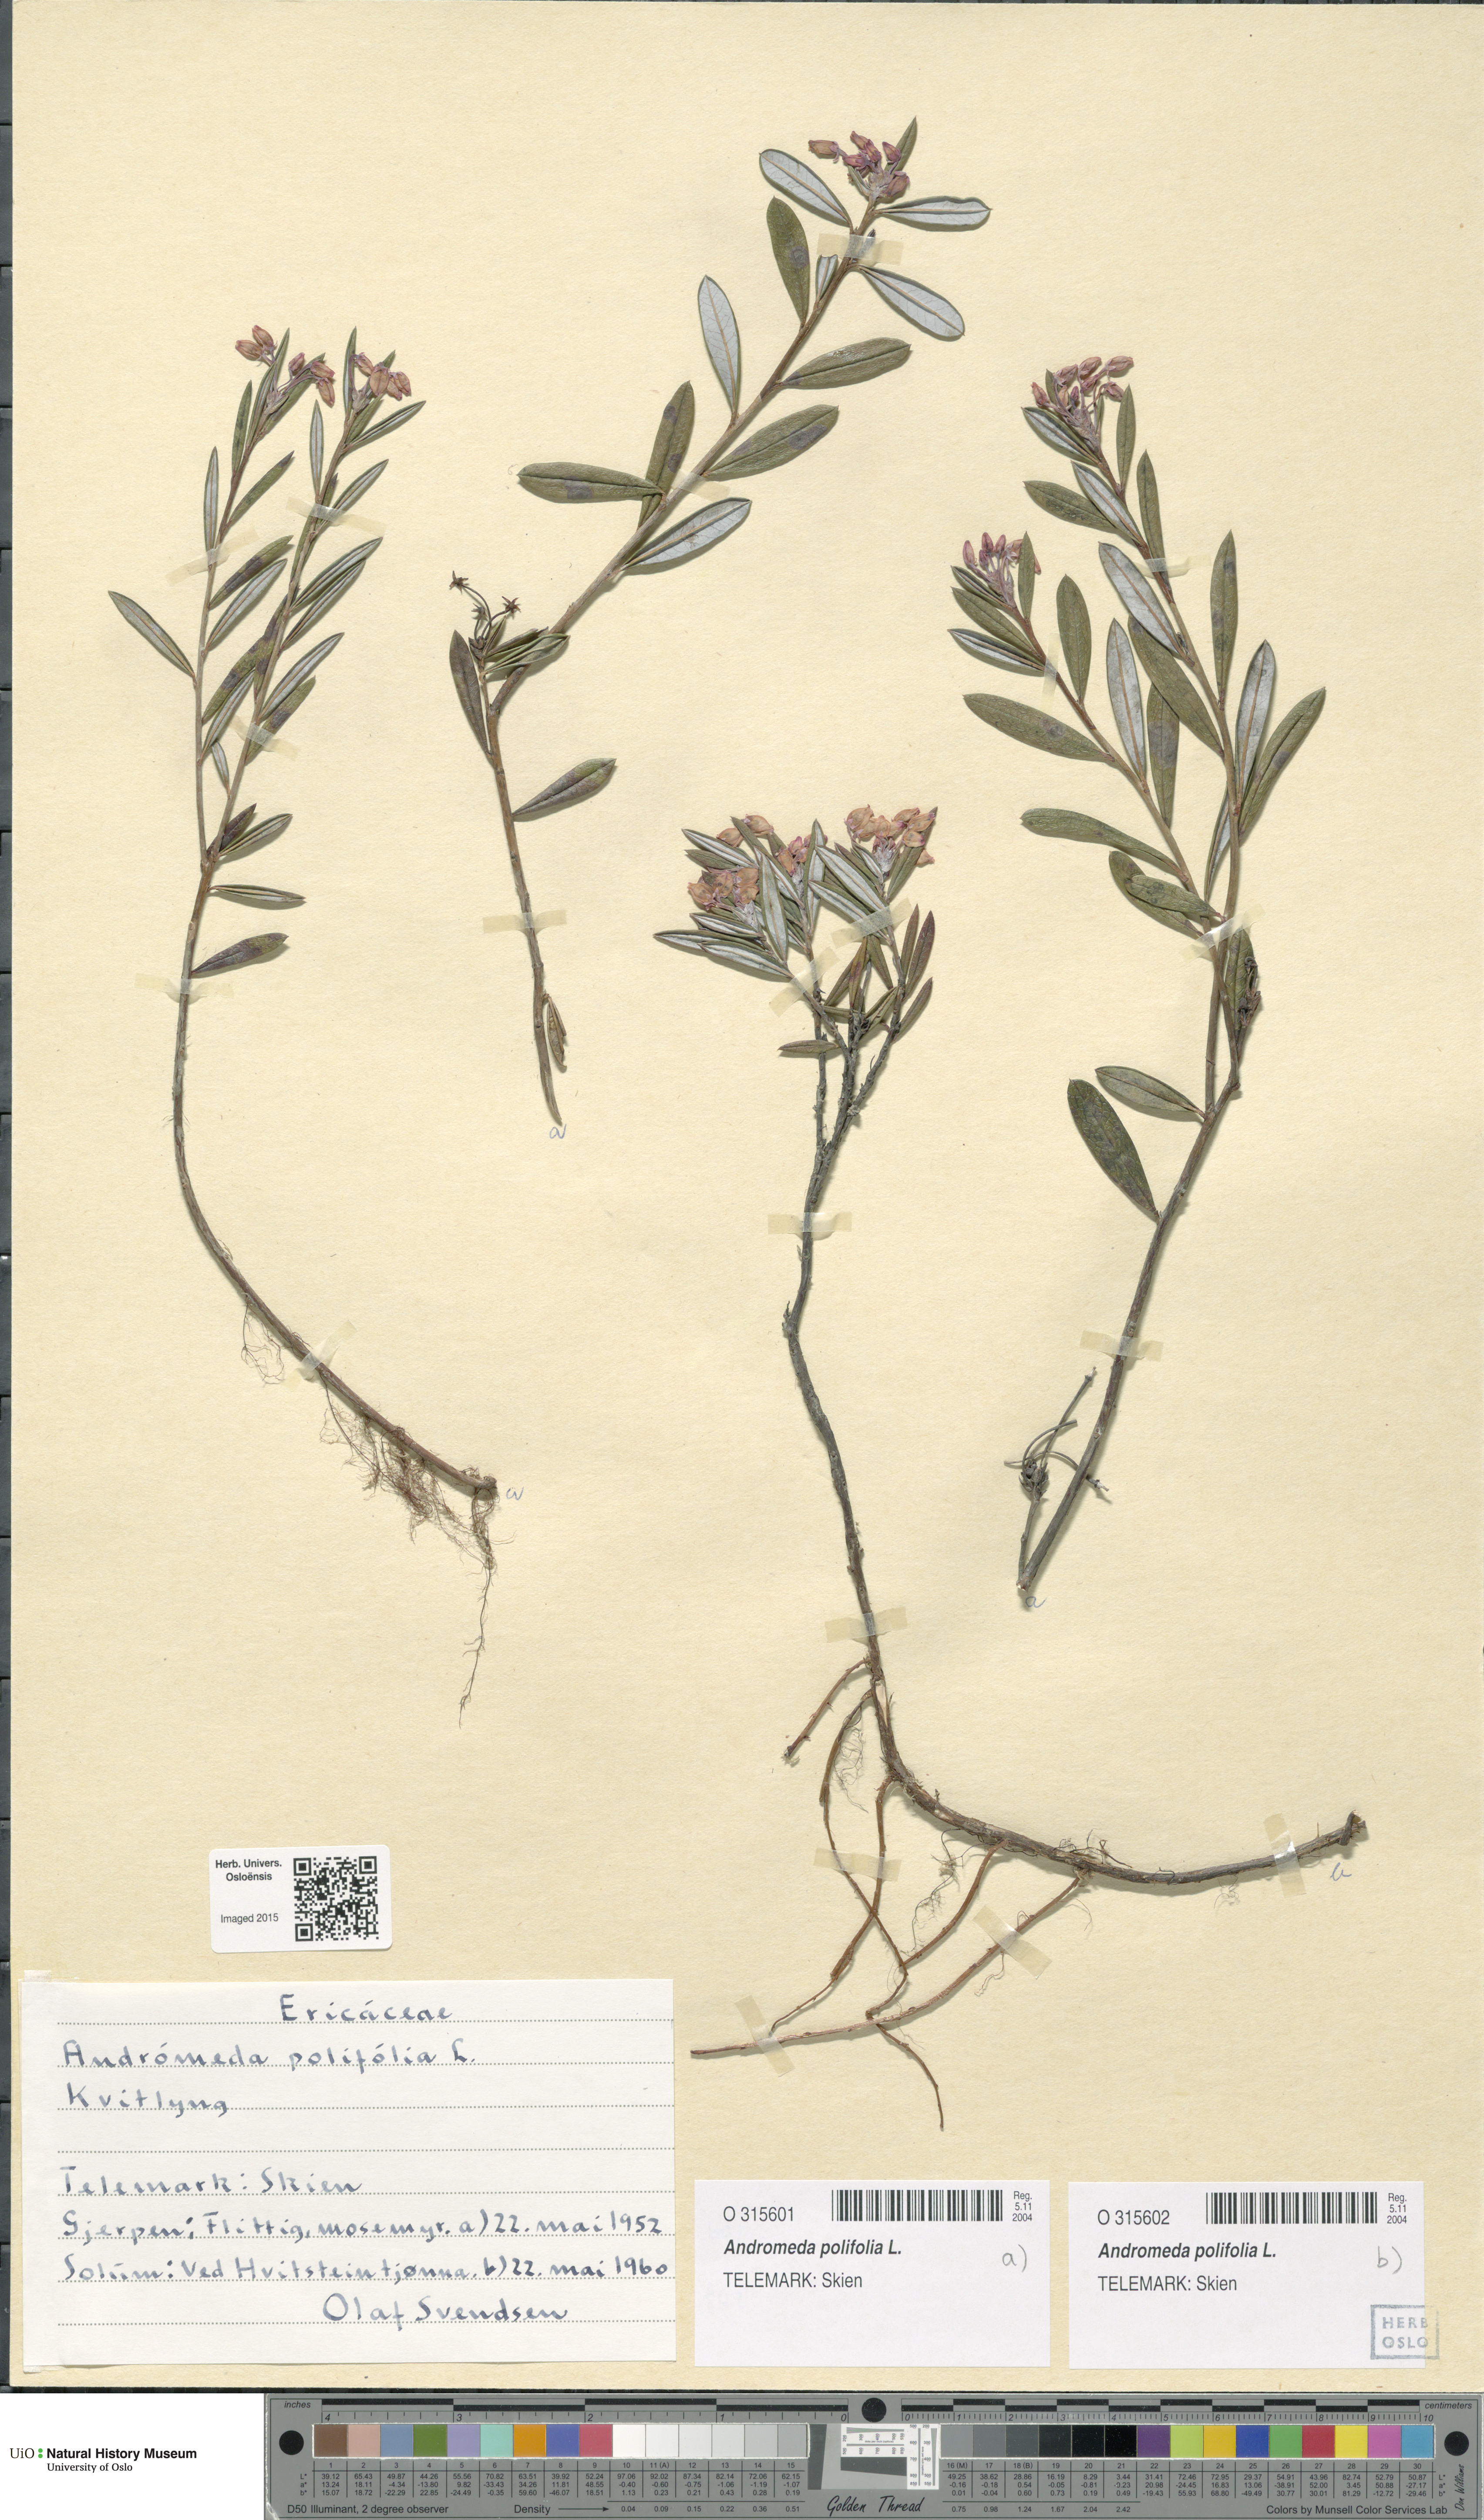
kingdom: Plantae
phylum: Tracheophyta
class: Magnoliopsida
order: Ericales
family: Ericaceae
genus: Andromeda
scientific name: Andromeda polifolia
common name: Bog-rosemary
